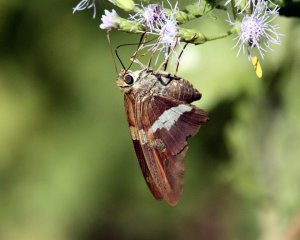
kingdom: Animalia
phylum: Arthropoda
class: Insecta
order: Lepidoptera
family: Hesperiidae
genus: Aguna
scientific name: Aguna asander
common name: Gold-spotted Aguna
